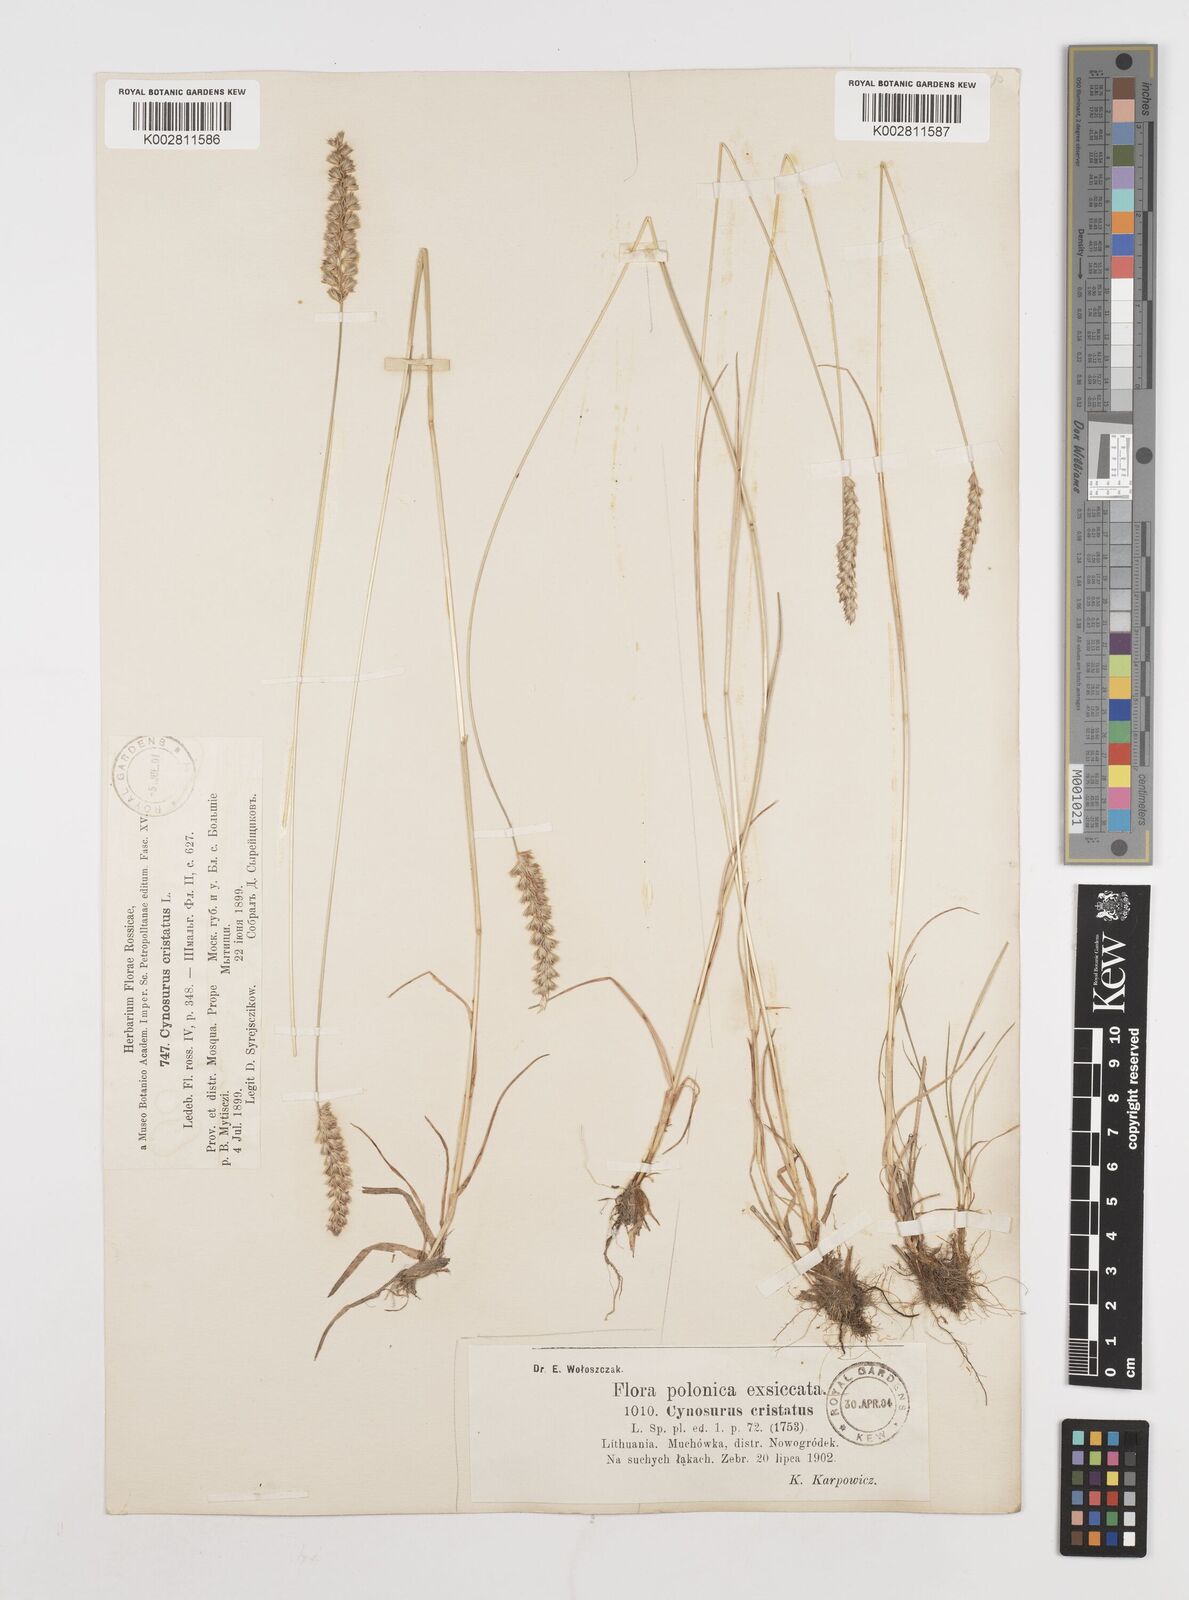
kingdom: Plantae
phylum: Tracheophyta
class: Liliopsida
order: Poales
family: Poaceae
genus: Cynosurus
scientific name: Cynosurus cristatus
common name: Crested dog's-tail
